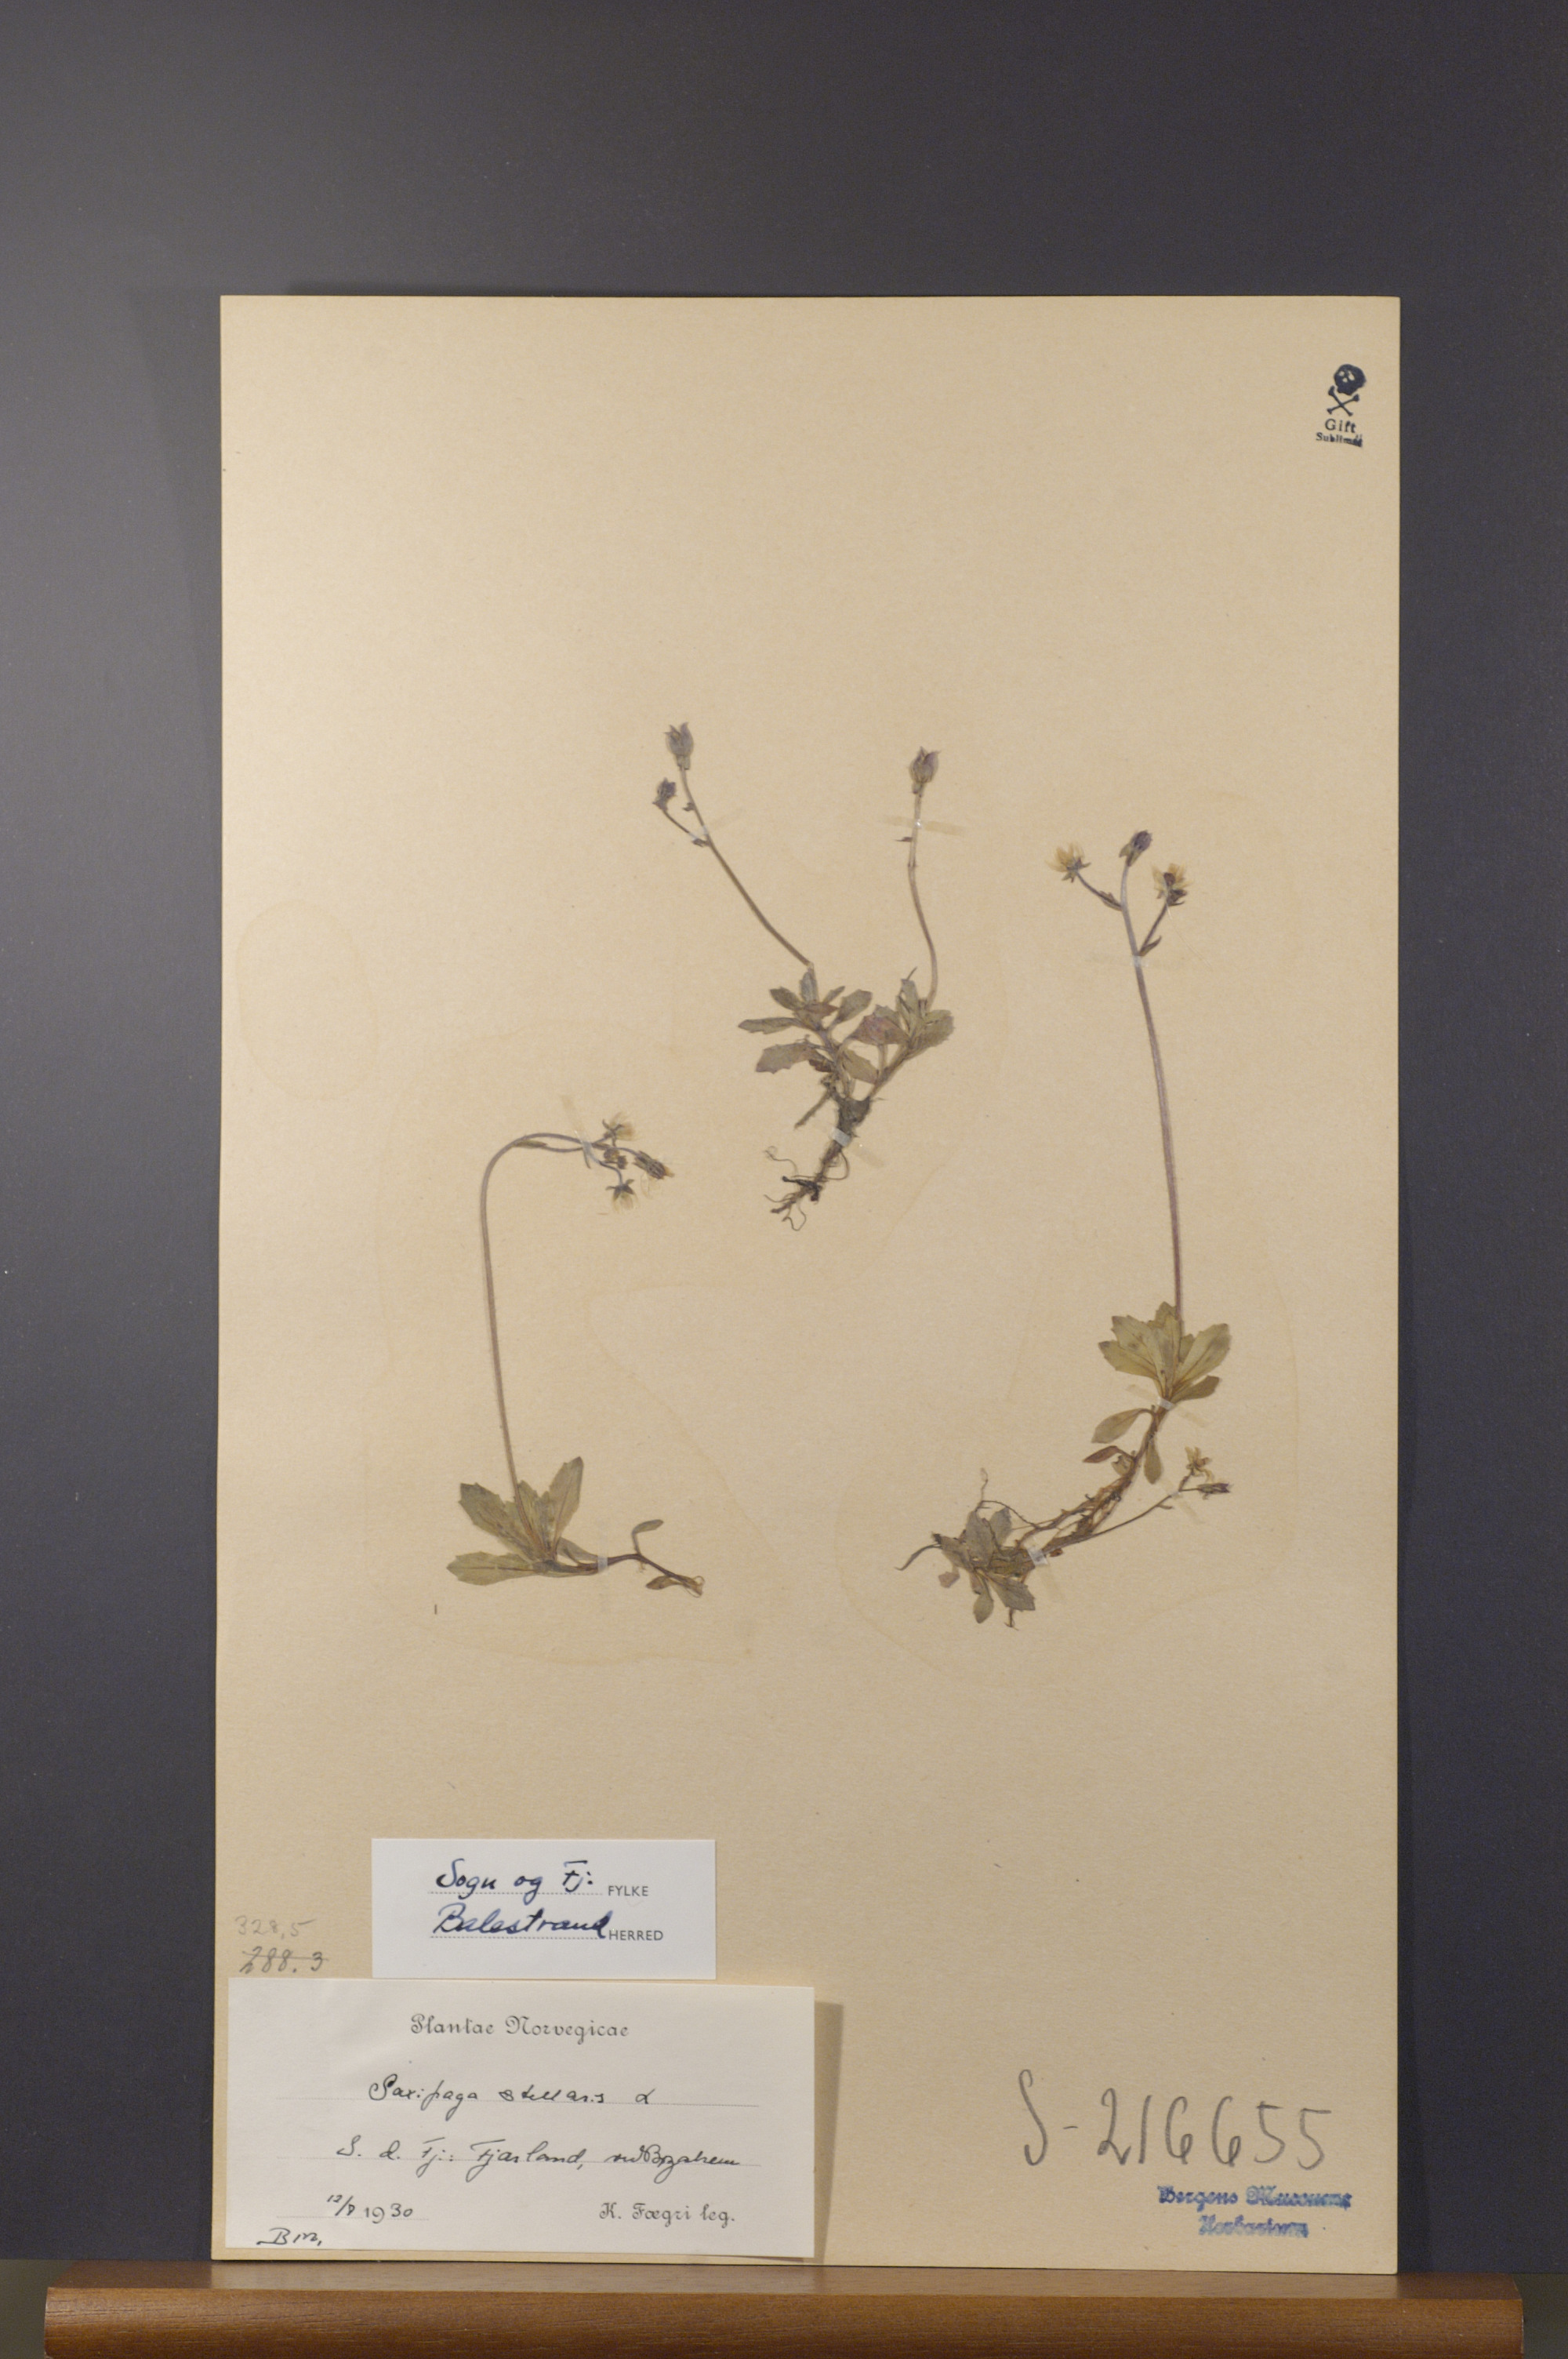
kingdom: Plantae
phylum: Tracheophyta
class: Magnoliopsida
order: Saxifragales
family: Saxifragaceae
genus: Micranthes
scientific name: Micranthes stellaris
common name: Starry saxifrage
